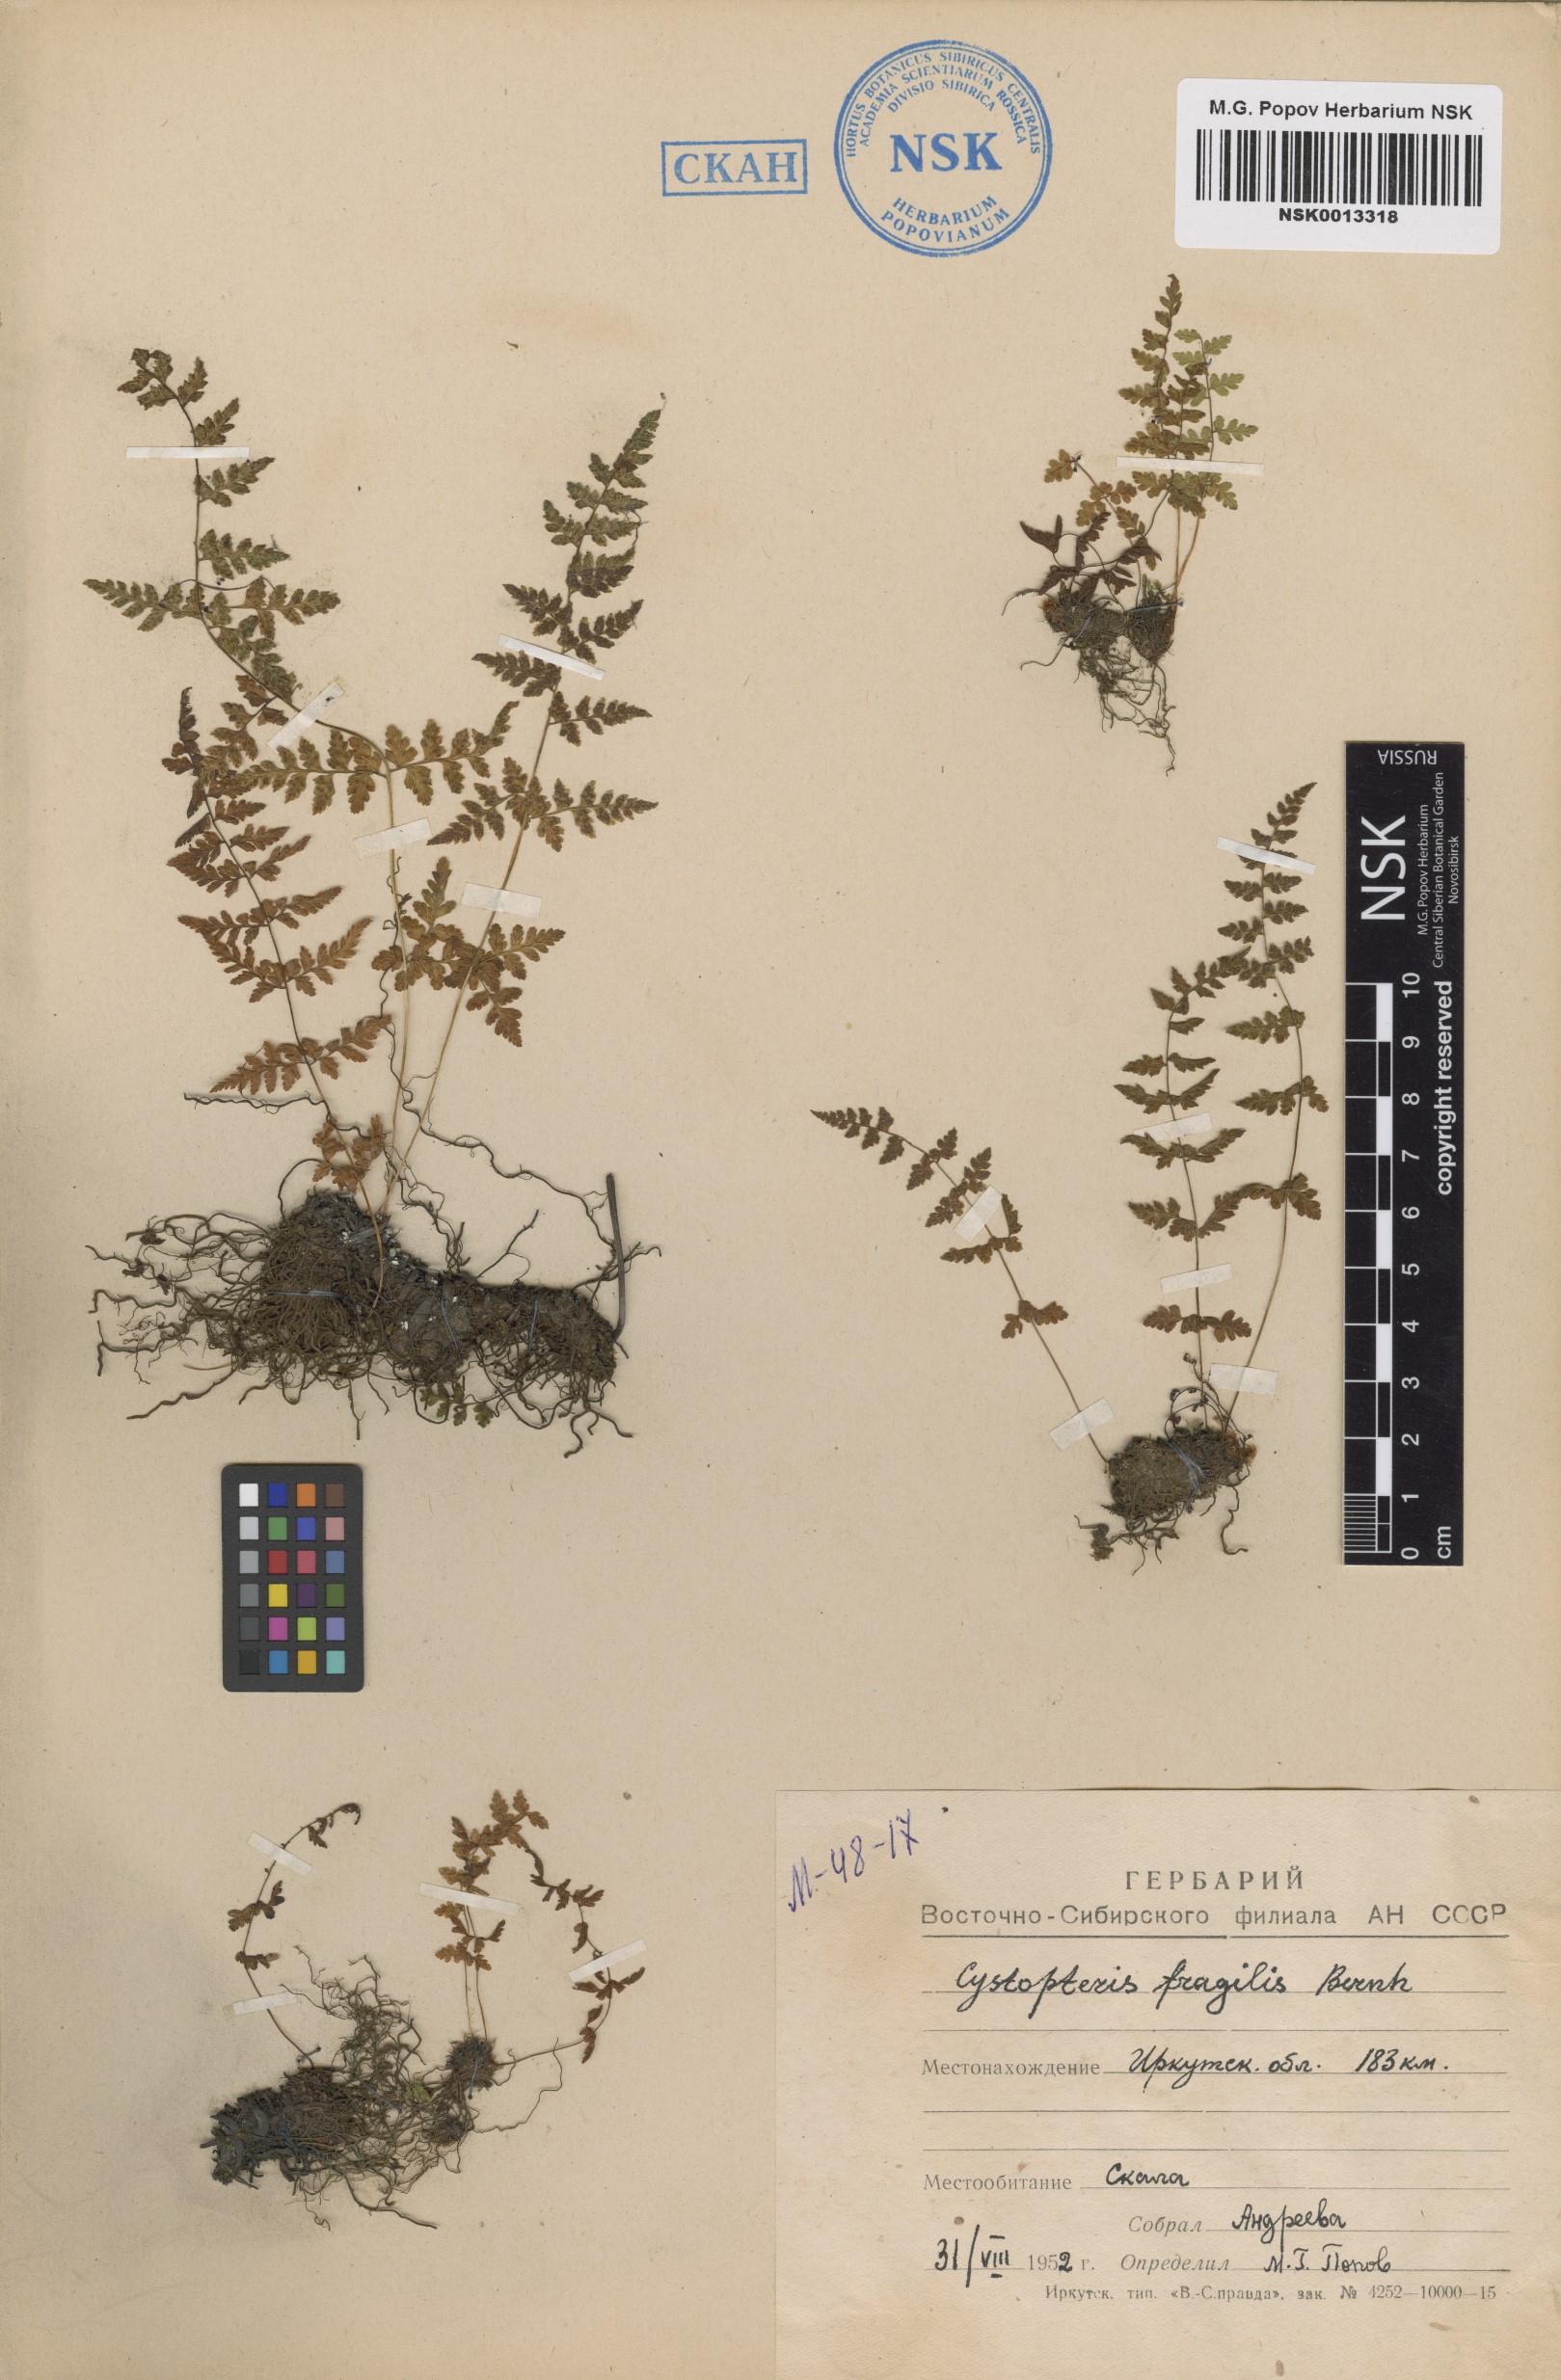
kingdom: Plantae
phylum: Tracheophyta
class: Polypodiopsida
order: Polypodiales
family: Cystopteridaceae
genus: Cystopteris
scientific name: Cystopteris fragilis
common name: Brittle bladder fern
